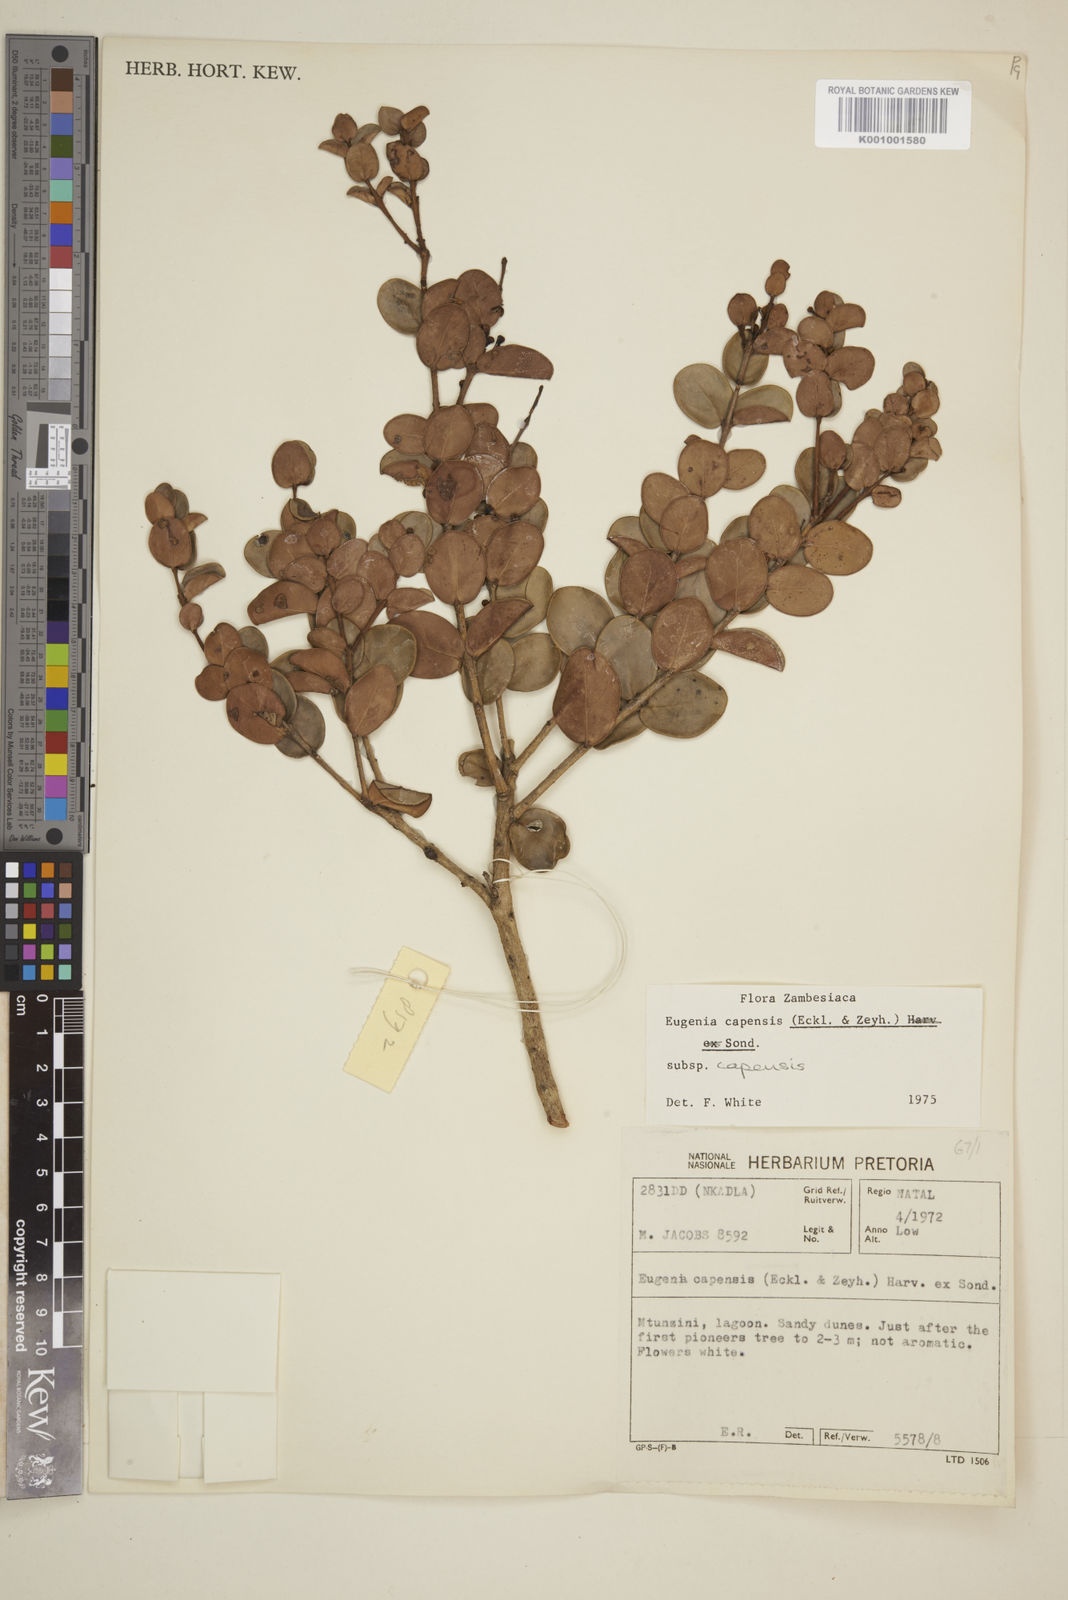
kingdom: Plantae
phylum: Tracheophyta
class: Magnoliopsida
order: Myrtales
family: Myrtaceae
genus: Eugenia
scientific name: Eugenia capensis
